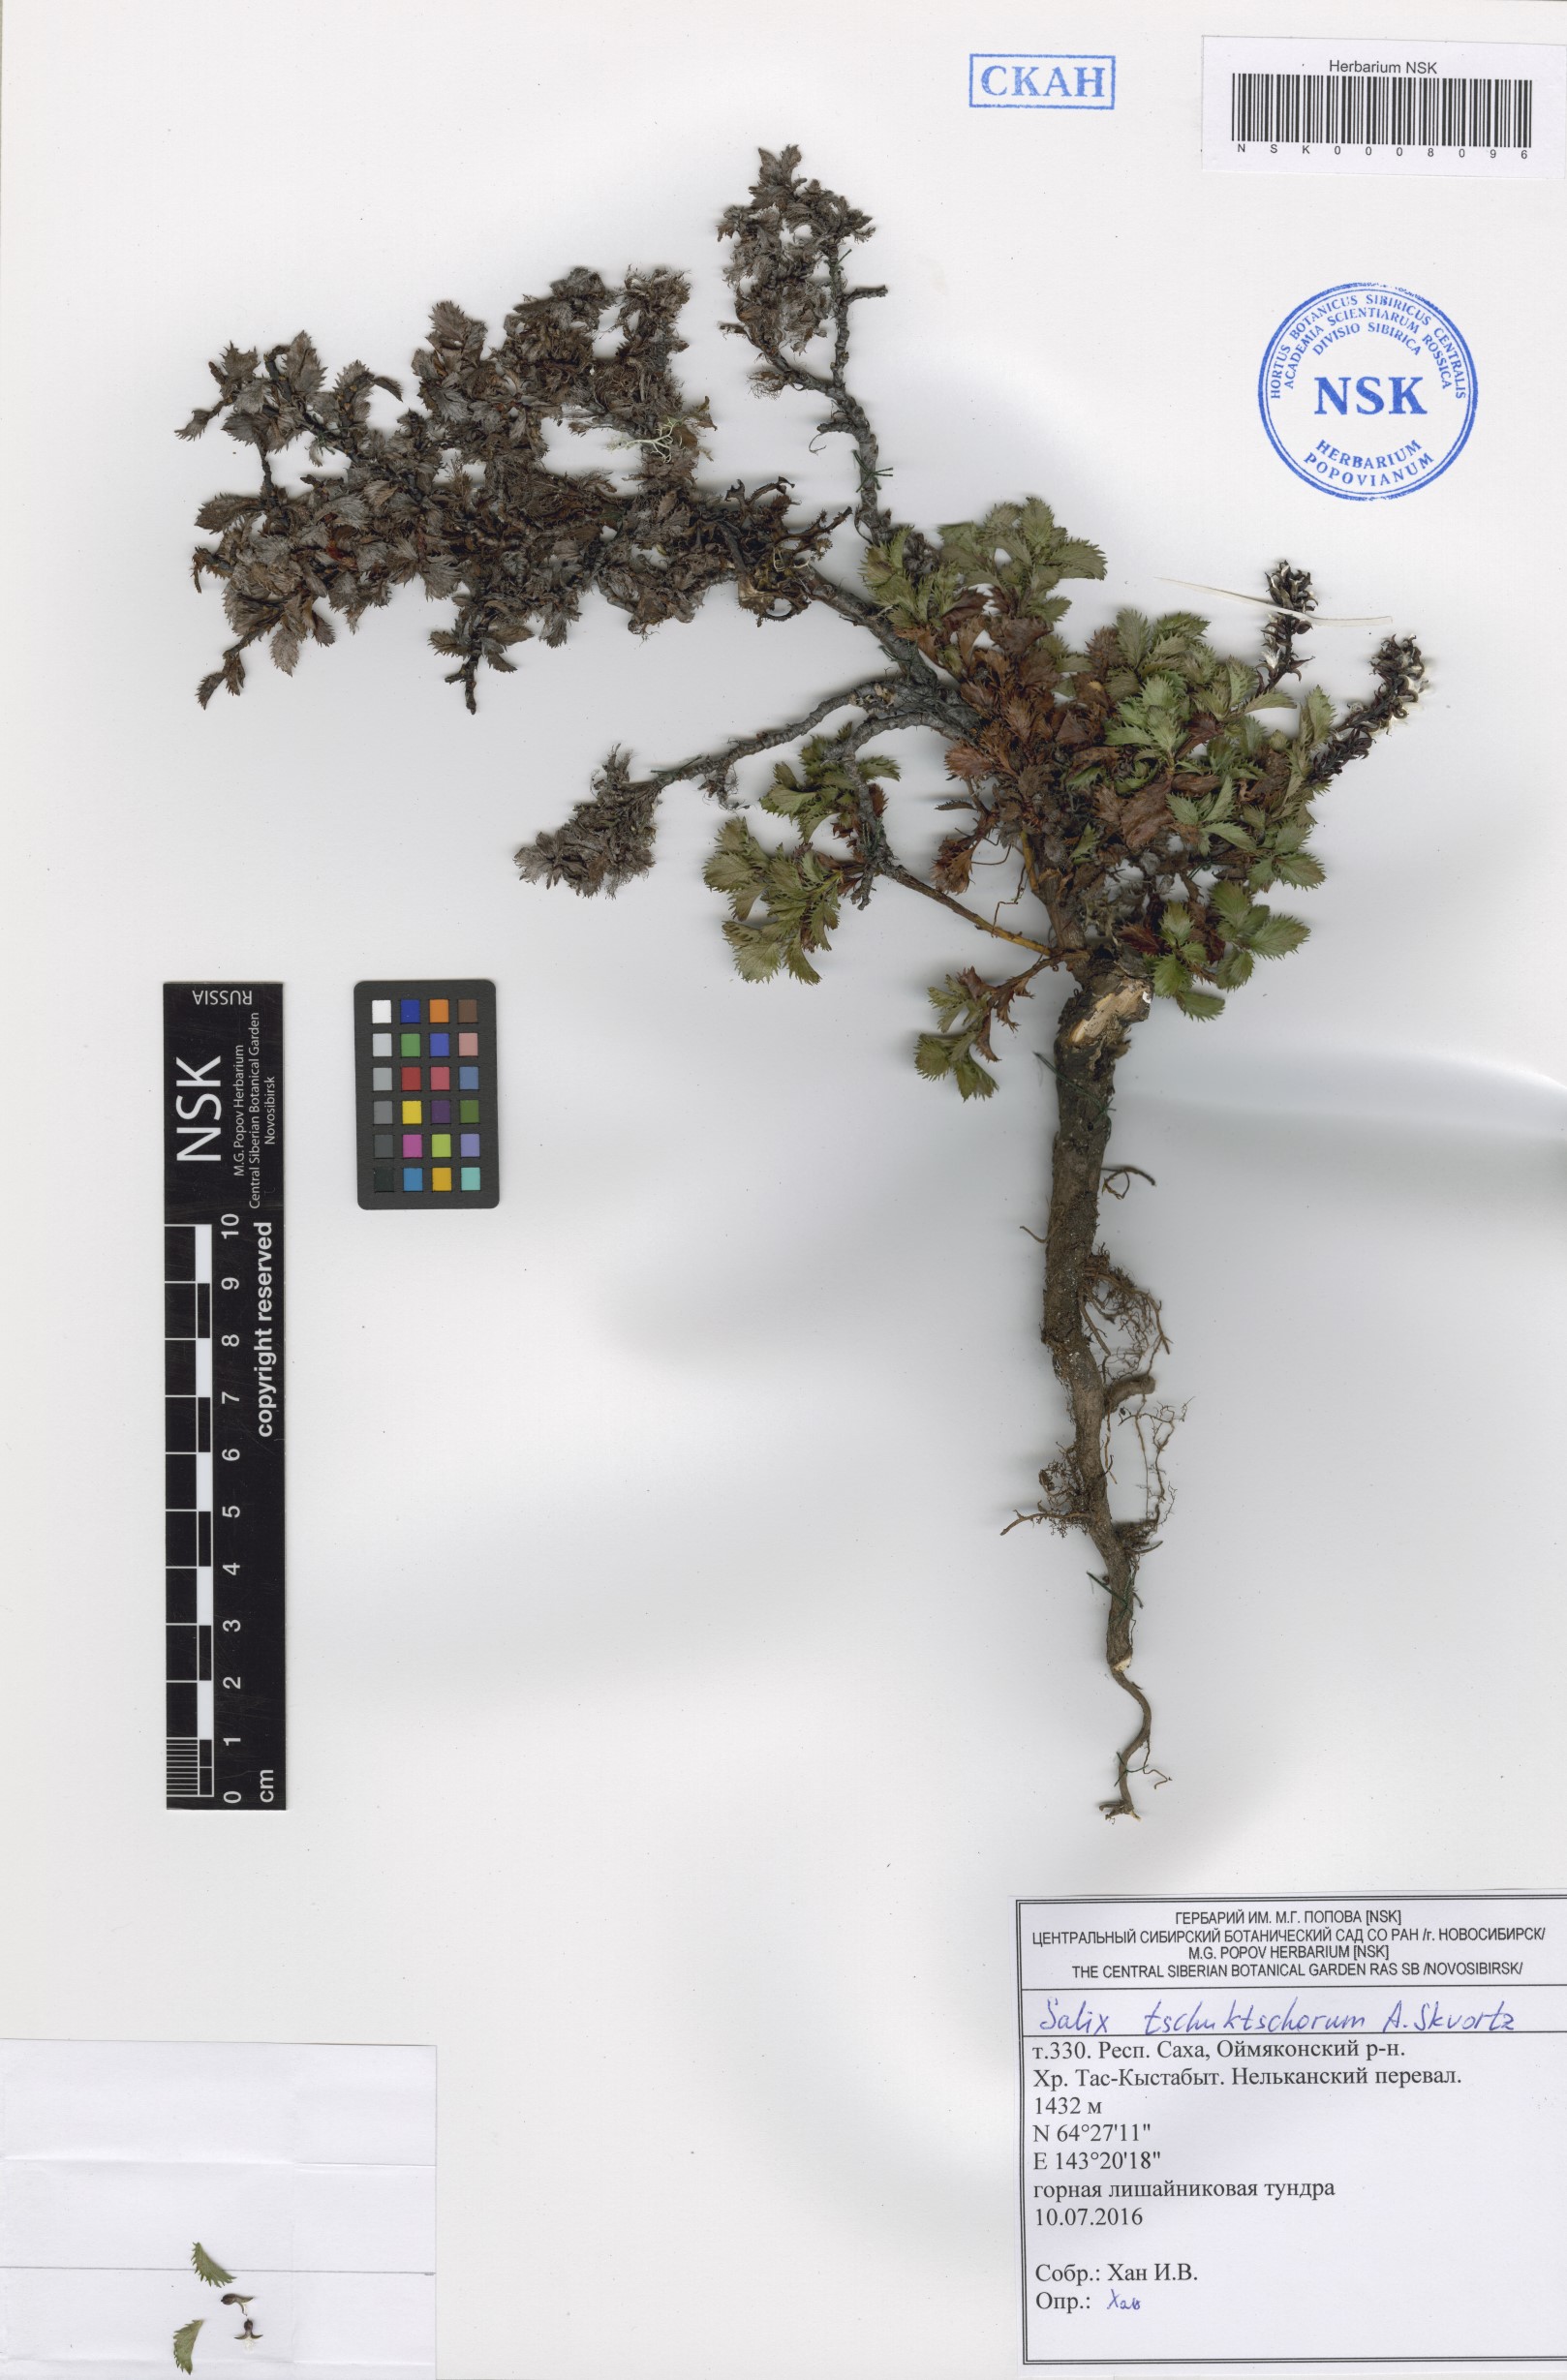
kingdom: Plantae
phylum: Tracheophyta
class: Magnoliopsida
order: Malpighiales
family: Salicaceae
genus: Salix
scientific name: Salix tschuktschorum
